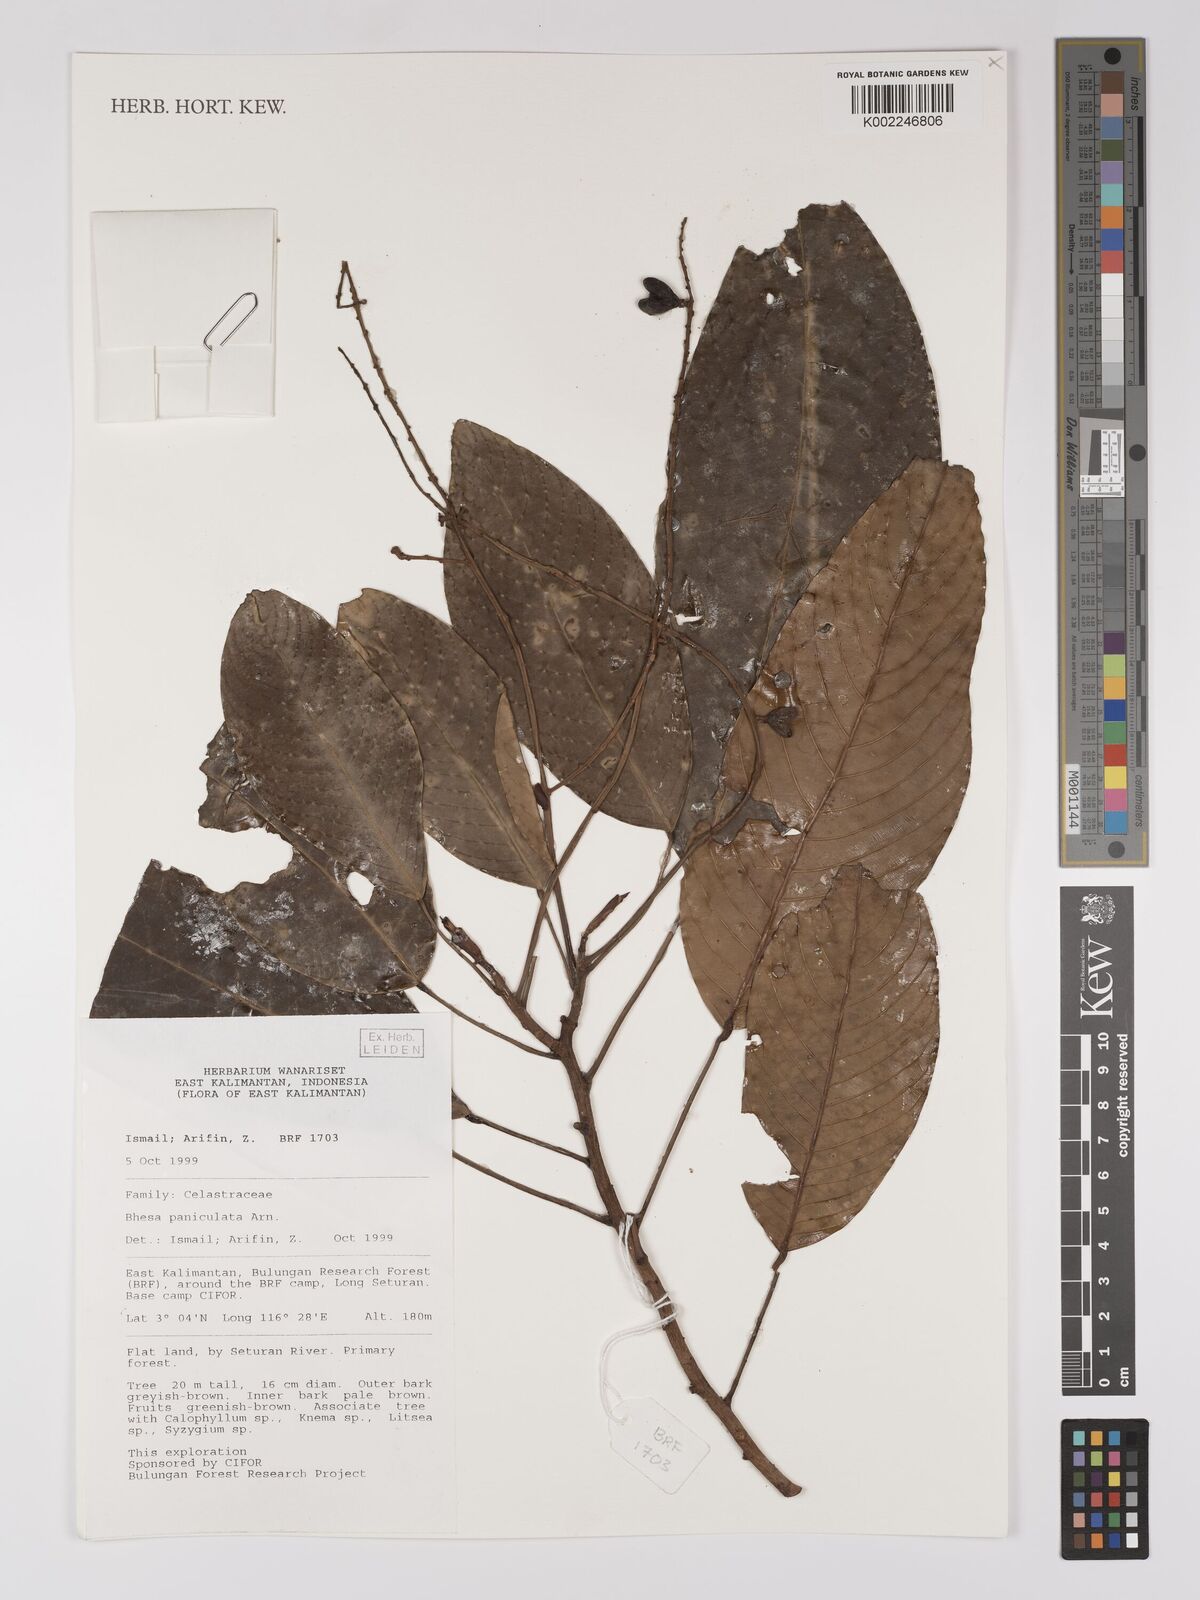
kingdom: Plantae
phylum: Tracheophyta
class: Magnoliopsida
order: Malpighiales
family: Centroplacaceae
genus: Bhesa
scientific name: Bhesa paniculata
